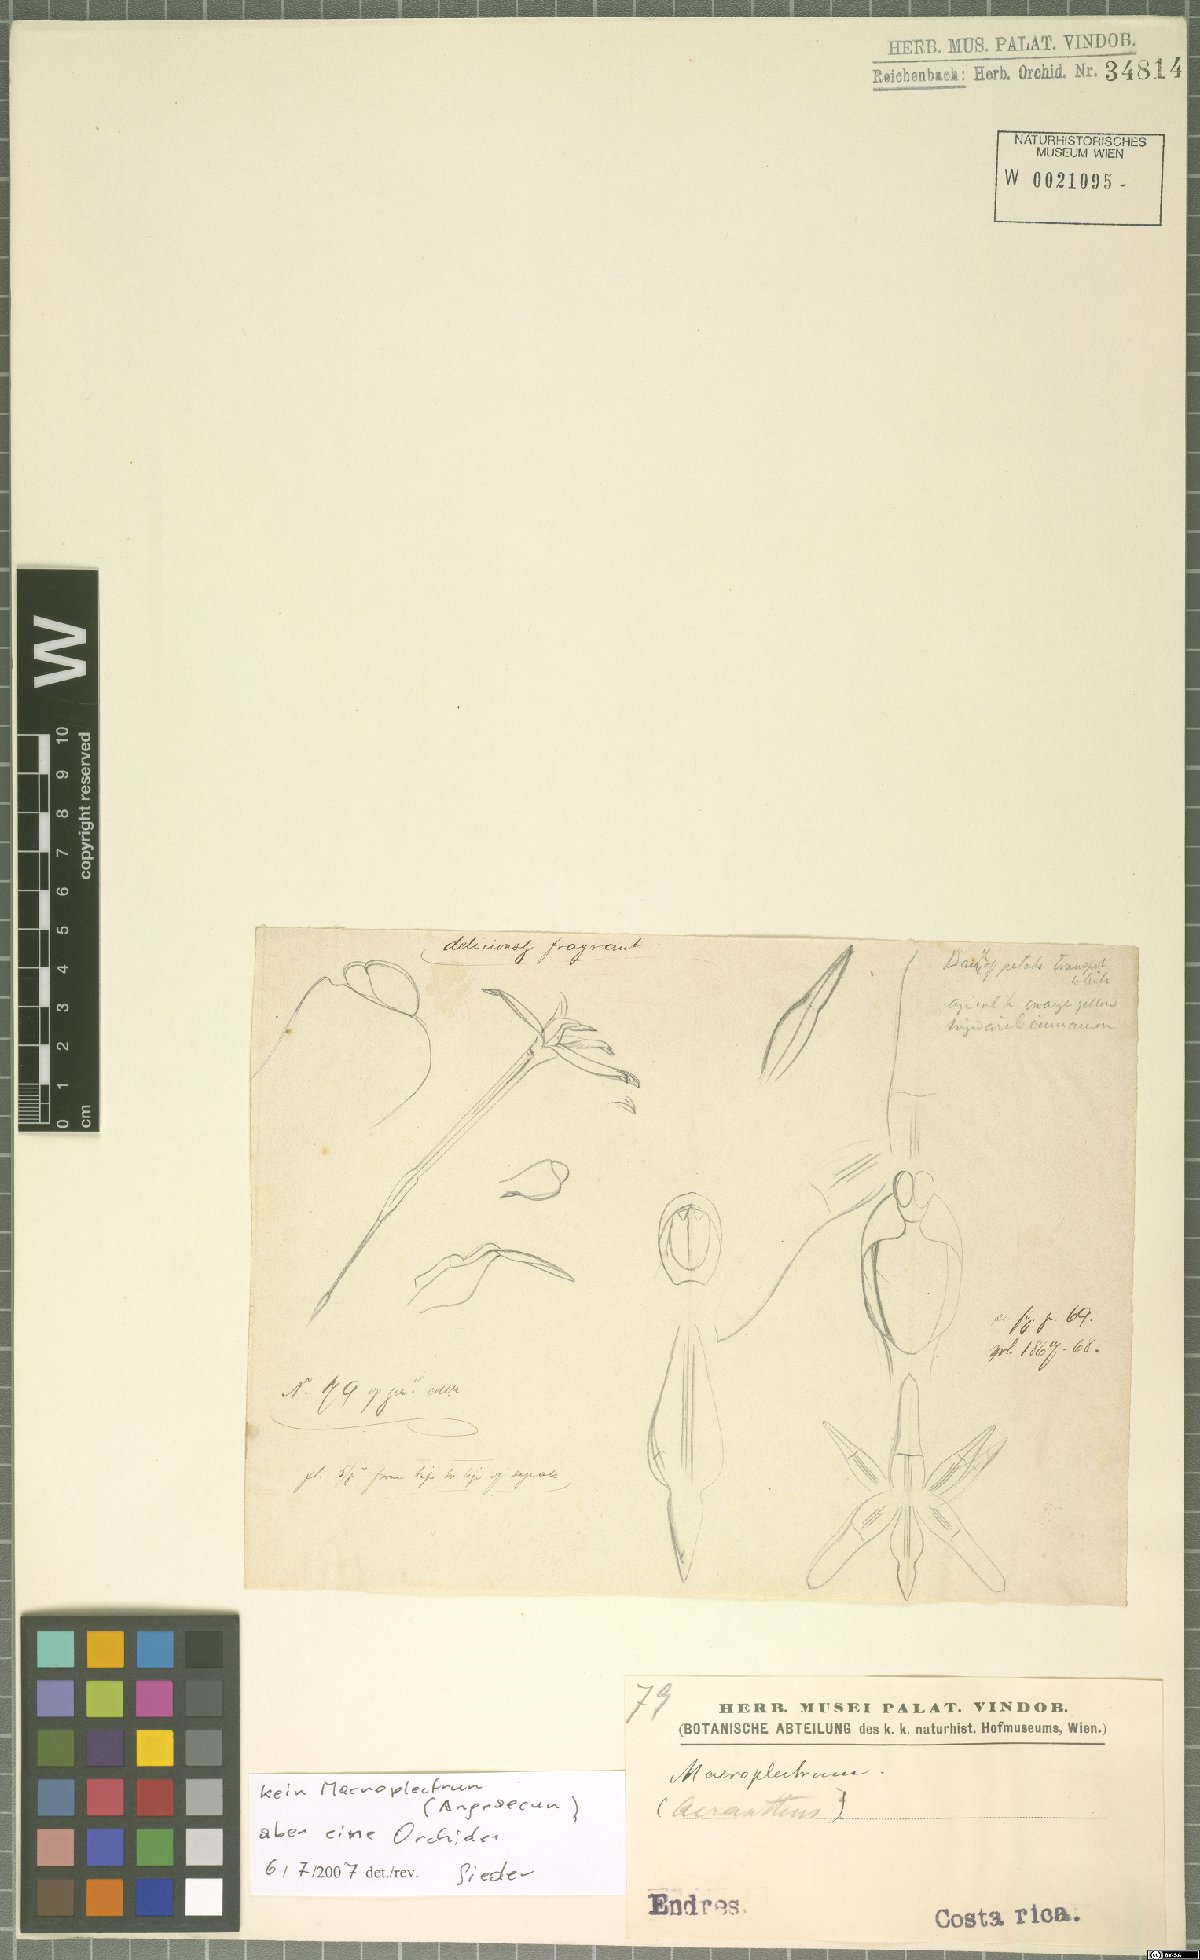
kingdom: Plantae
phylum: Tracheophyta
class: Liliopsida
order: Asparagales
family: Orchidaceae
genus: Maxillaria
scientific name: Maxillaria calcarata
